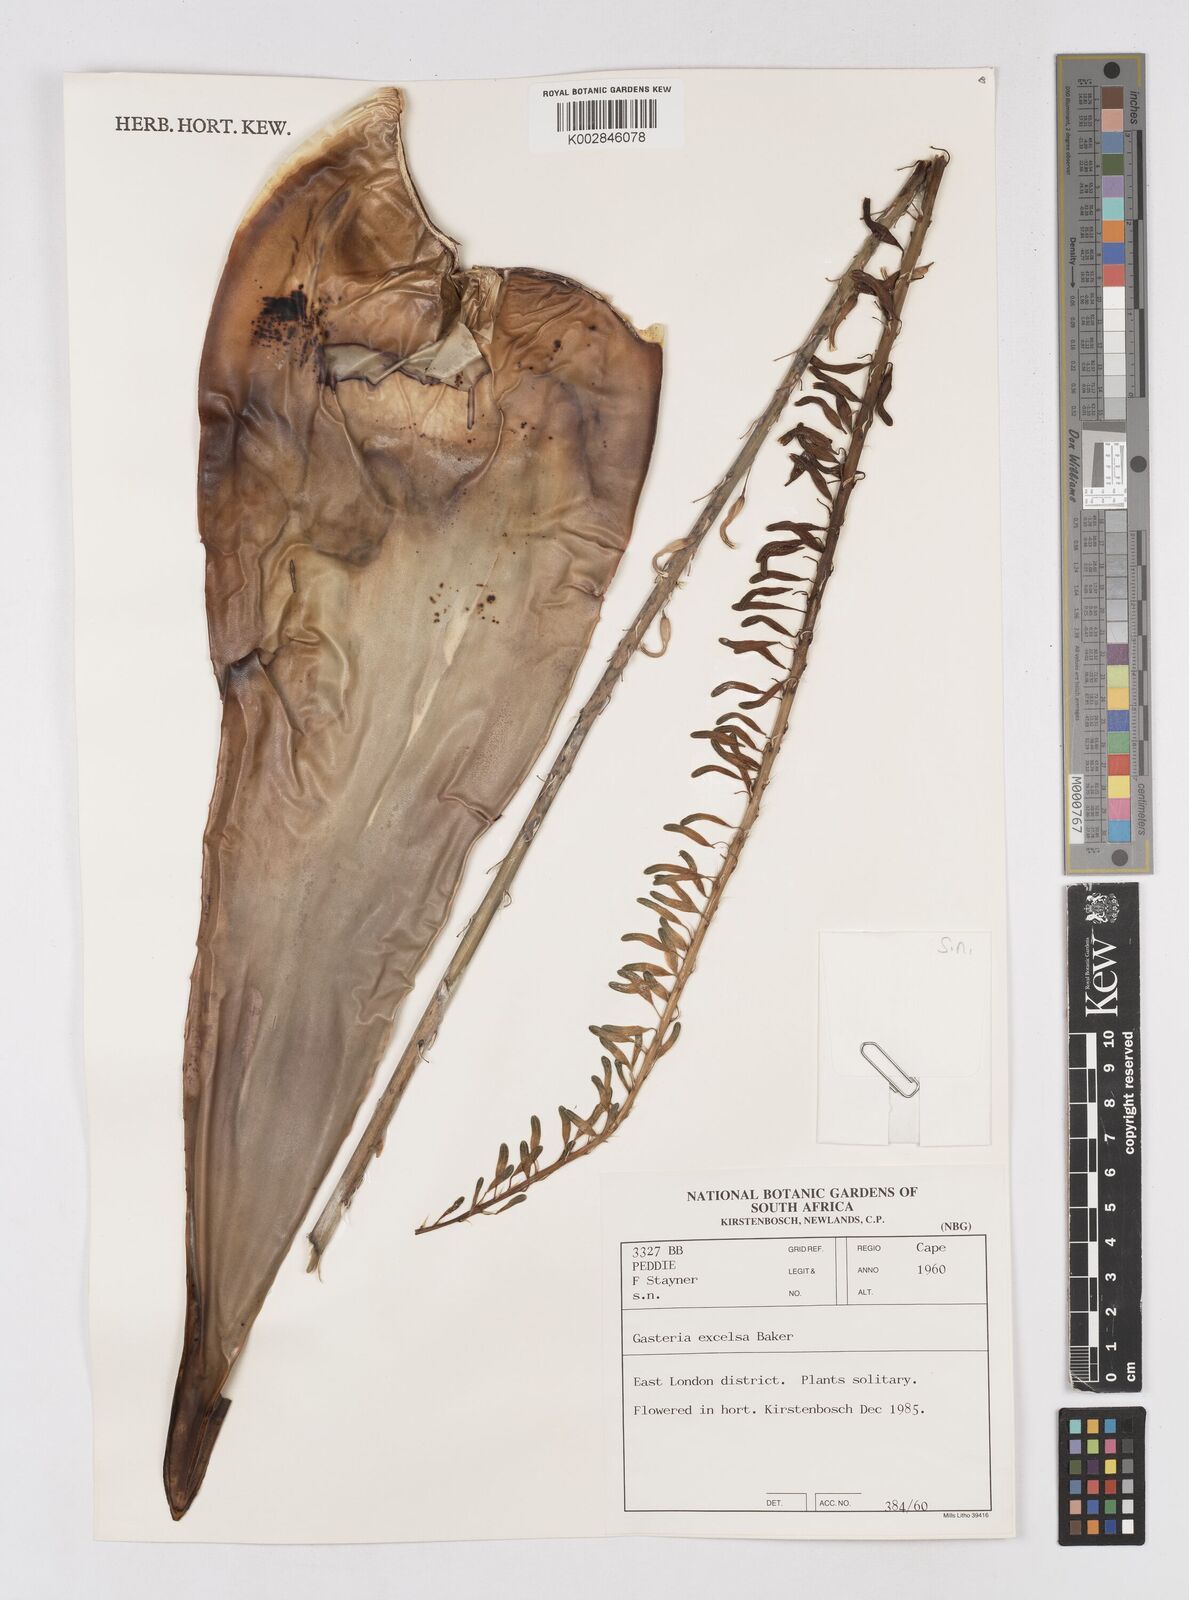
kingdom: Plantae
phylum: Tracheophyta
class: Liliopsida
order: Asparagales
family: Asphodelaceae
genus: Gasteria
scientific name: Gasteria excelsa
